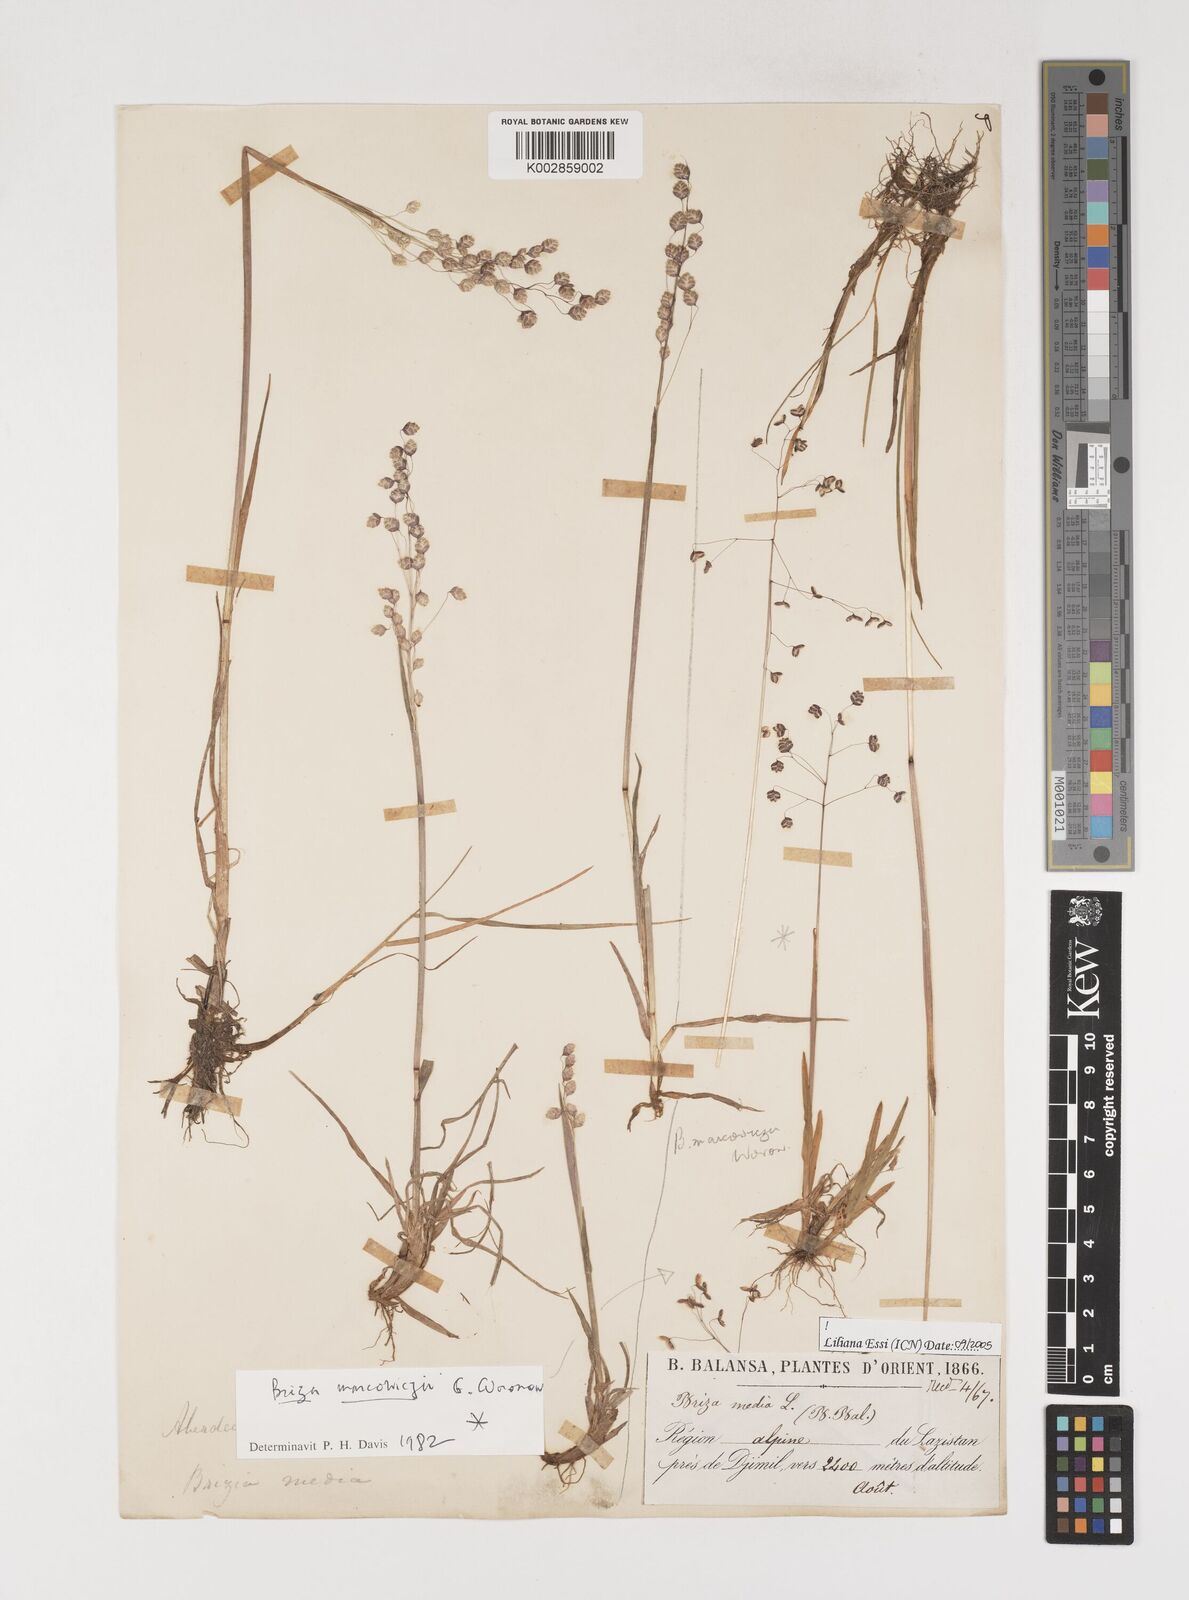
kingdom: Plantae
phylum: Tracheophyta
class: Liliopsida
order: Poales
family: Poaceae
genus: Briza
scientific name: Briza marcowiczii
